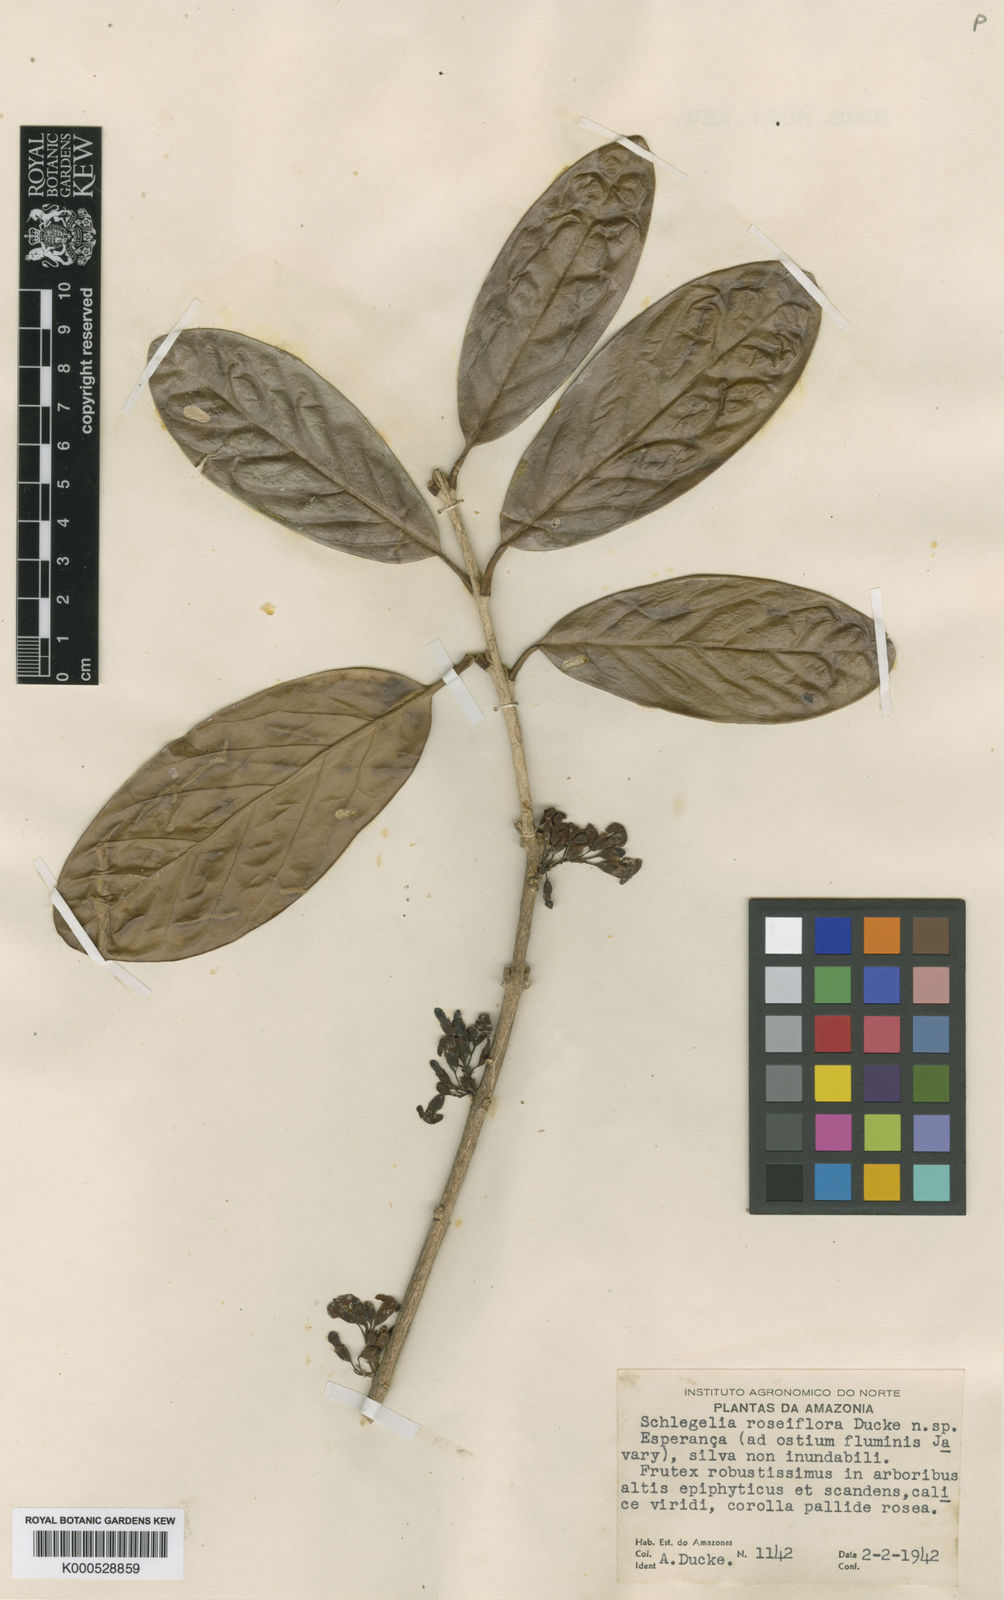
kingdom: Plantae
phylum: Tracheophyta
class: Magnoliopsida
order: Lamiales
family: Schlegeliaceae
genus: Schlegelia
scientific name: Schlegelia roseiflora
